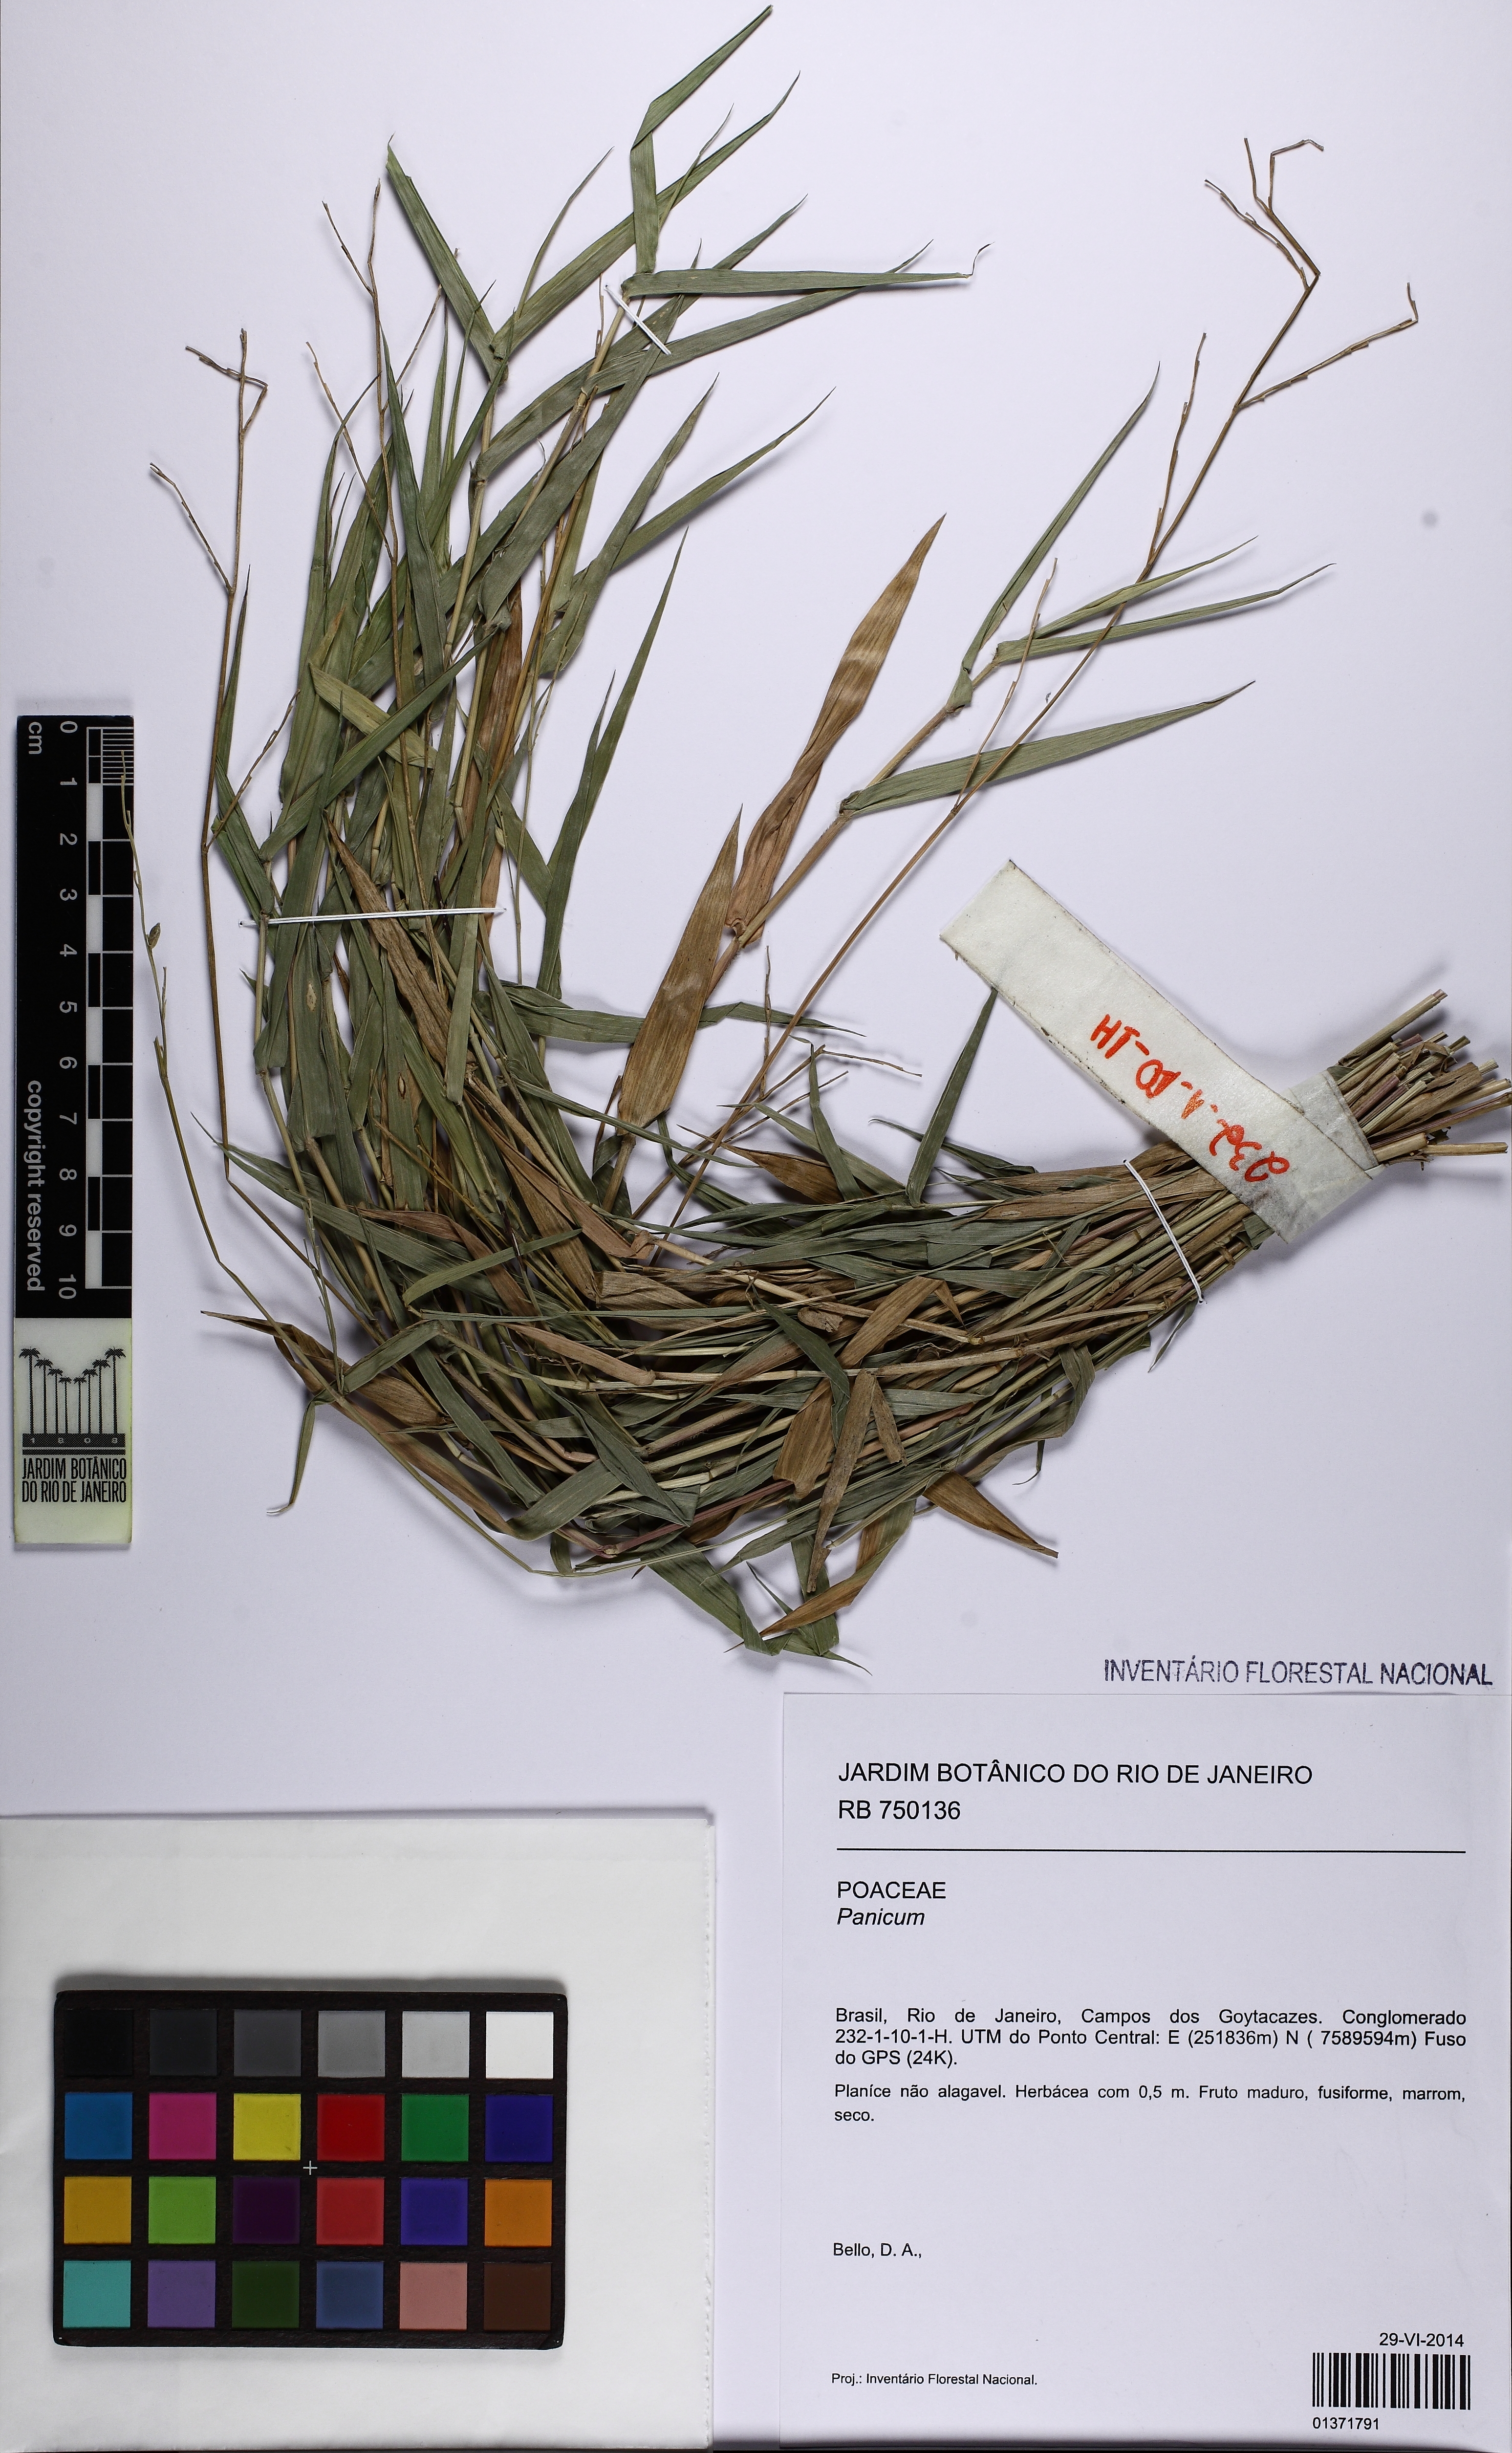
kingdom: Plantae
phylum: Tracheophyta
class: Liliopsida
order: Poales
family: Poaceae
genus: Panicum
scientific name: Panicum
